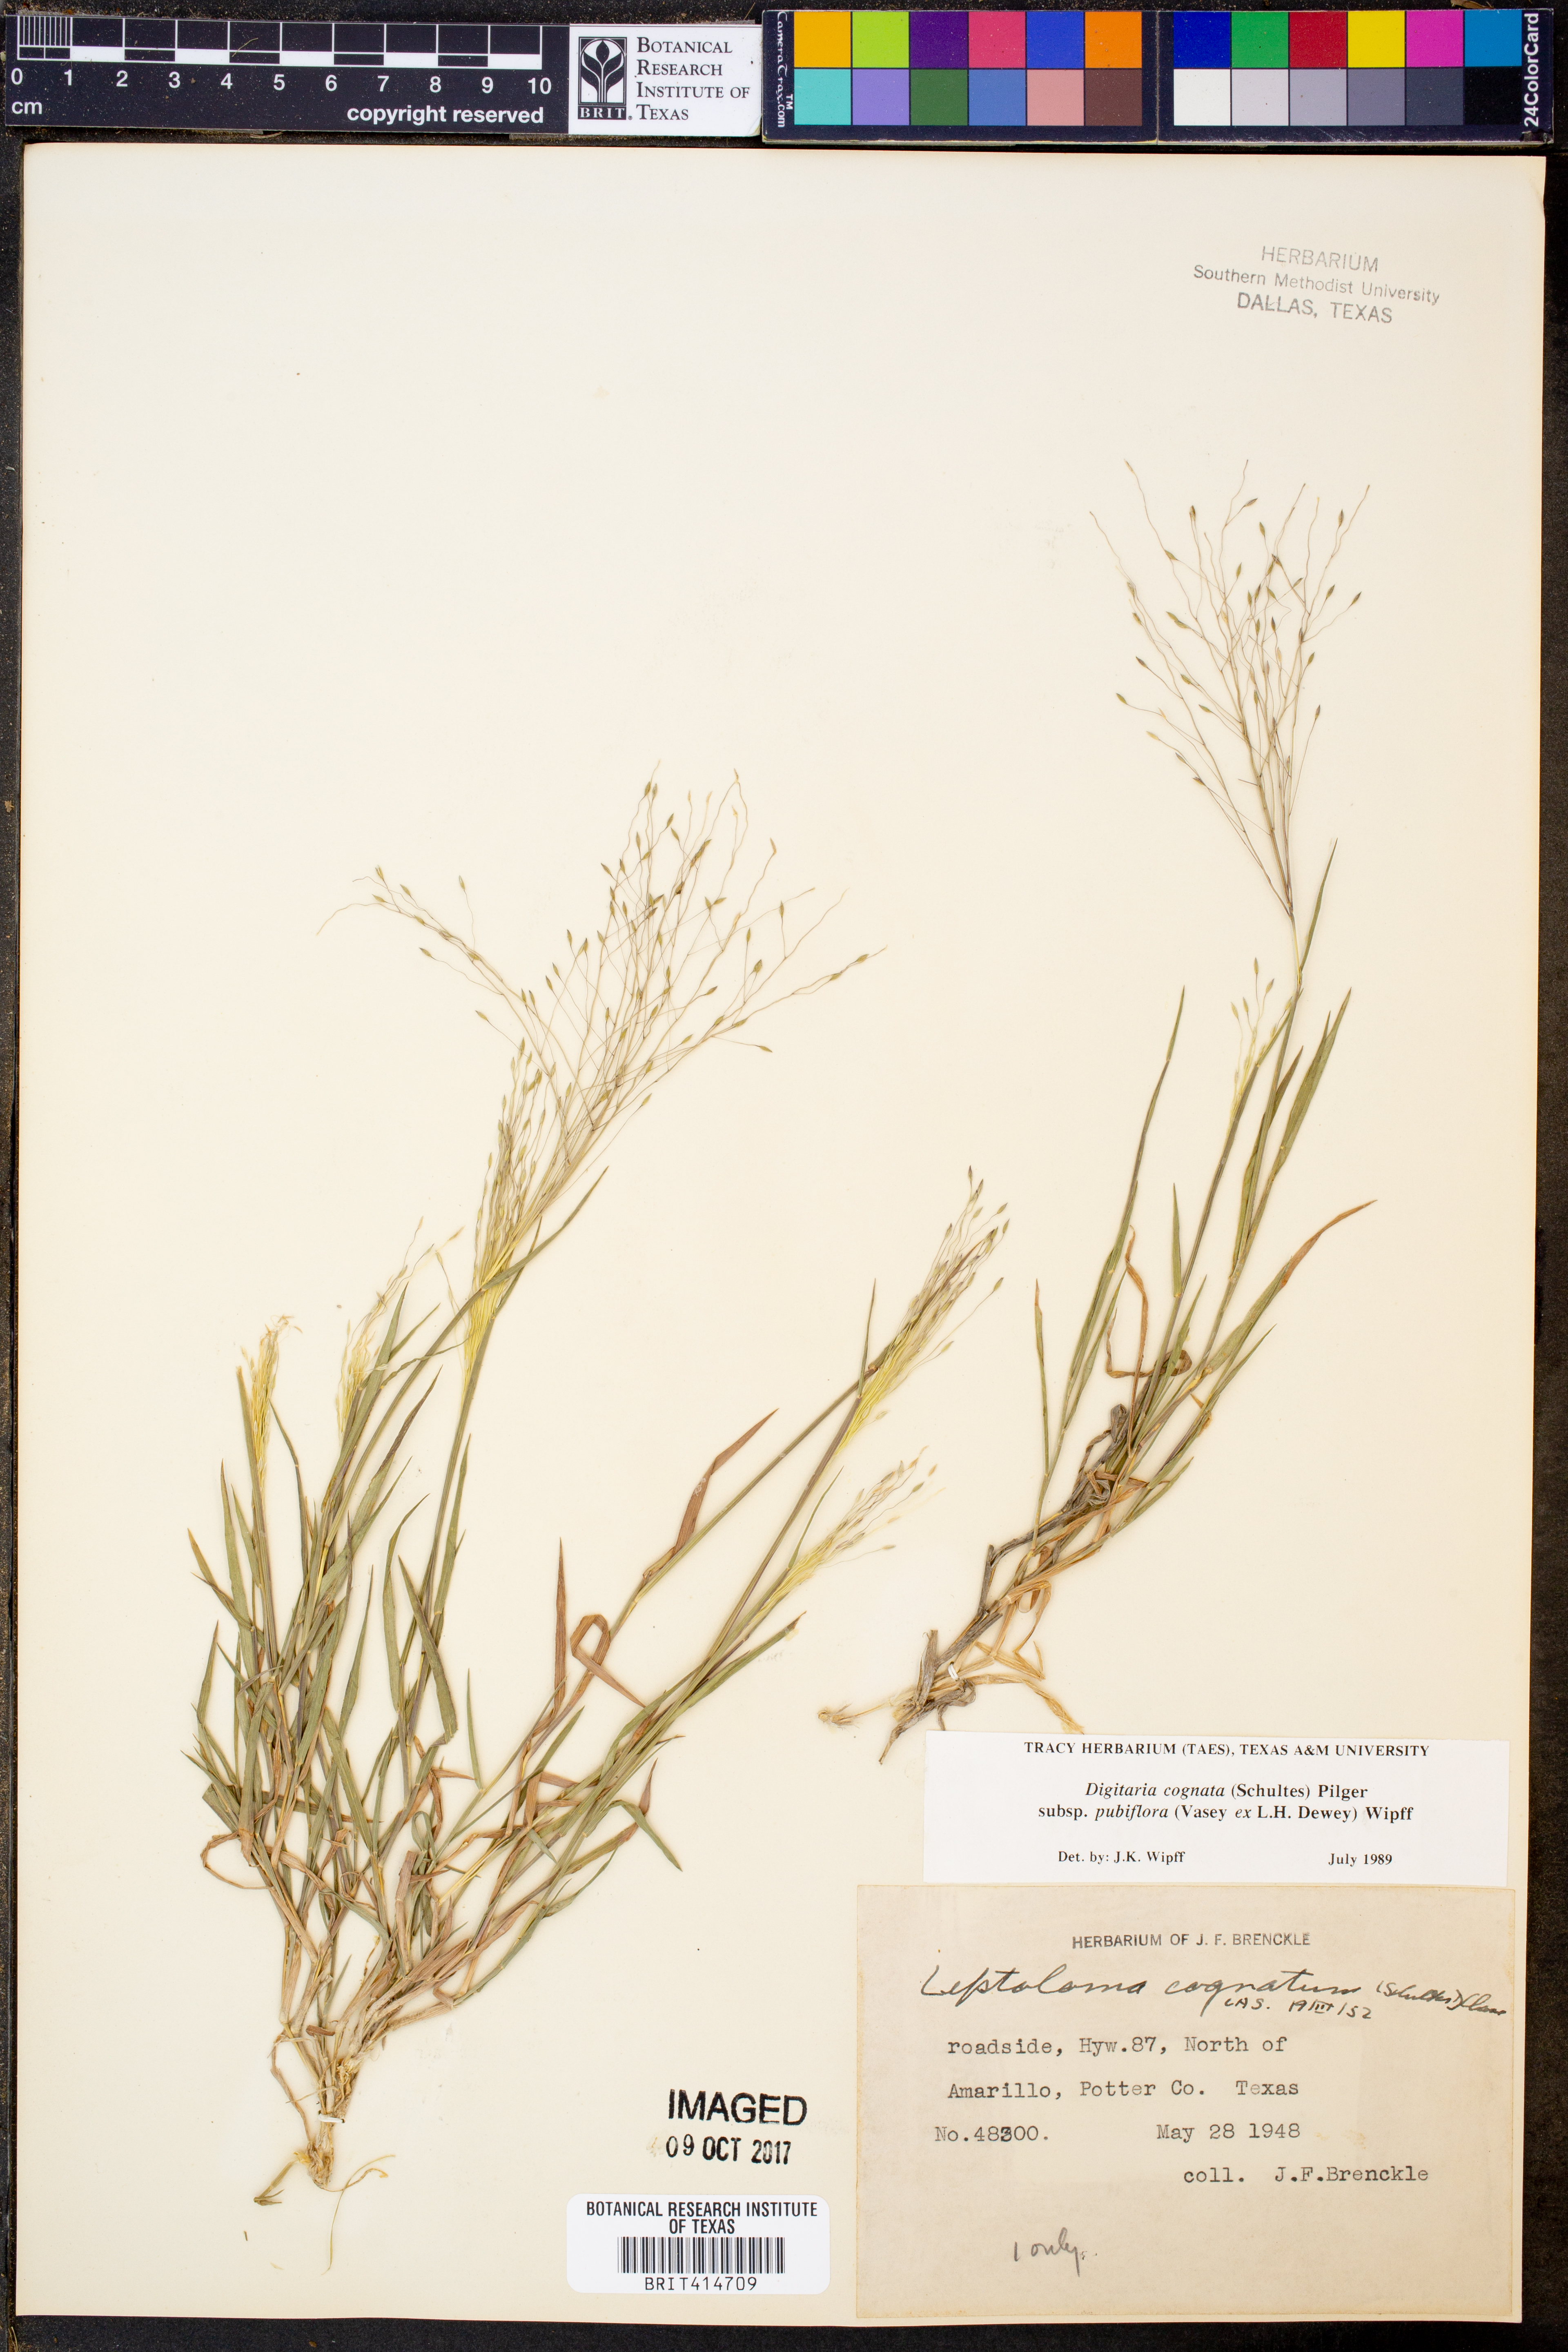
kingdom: Plantae
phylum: Tracheophyta
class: Liliopsida
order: Poales
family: Poaceae
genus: Digitaria
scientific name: Digitaria cognata
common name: Fall witchgrass
